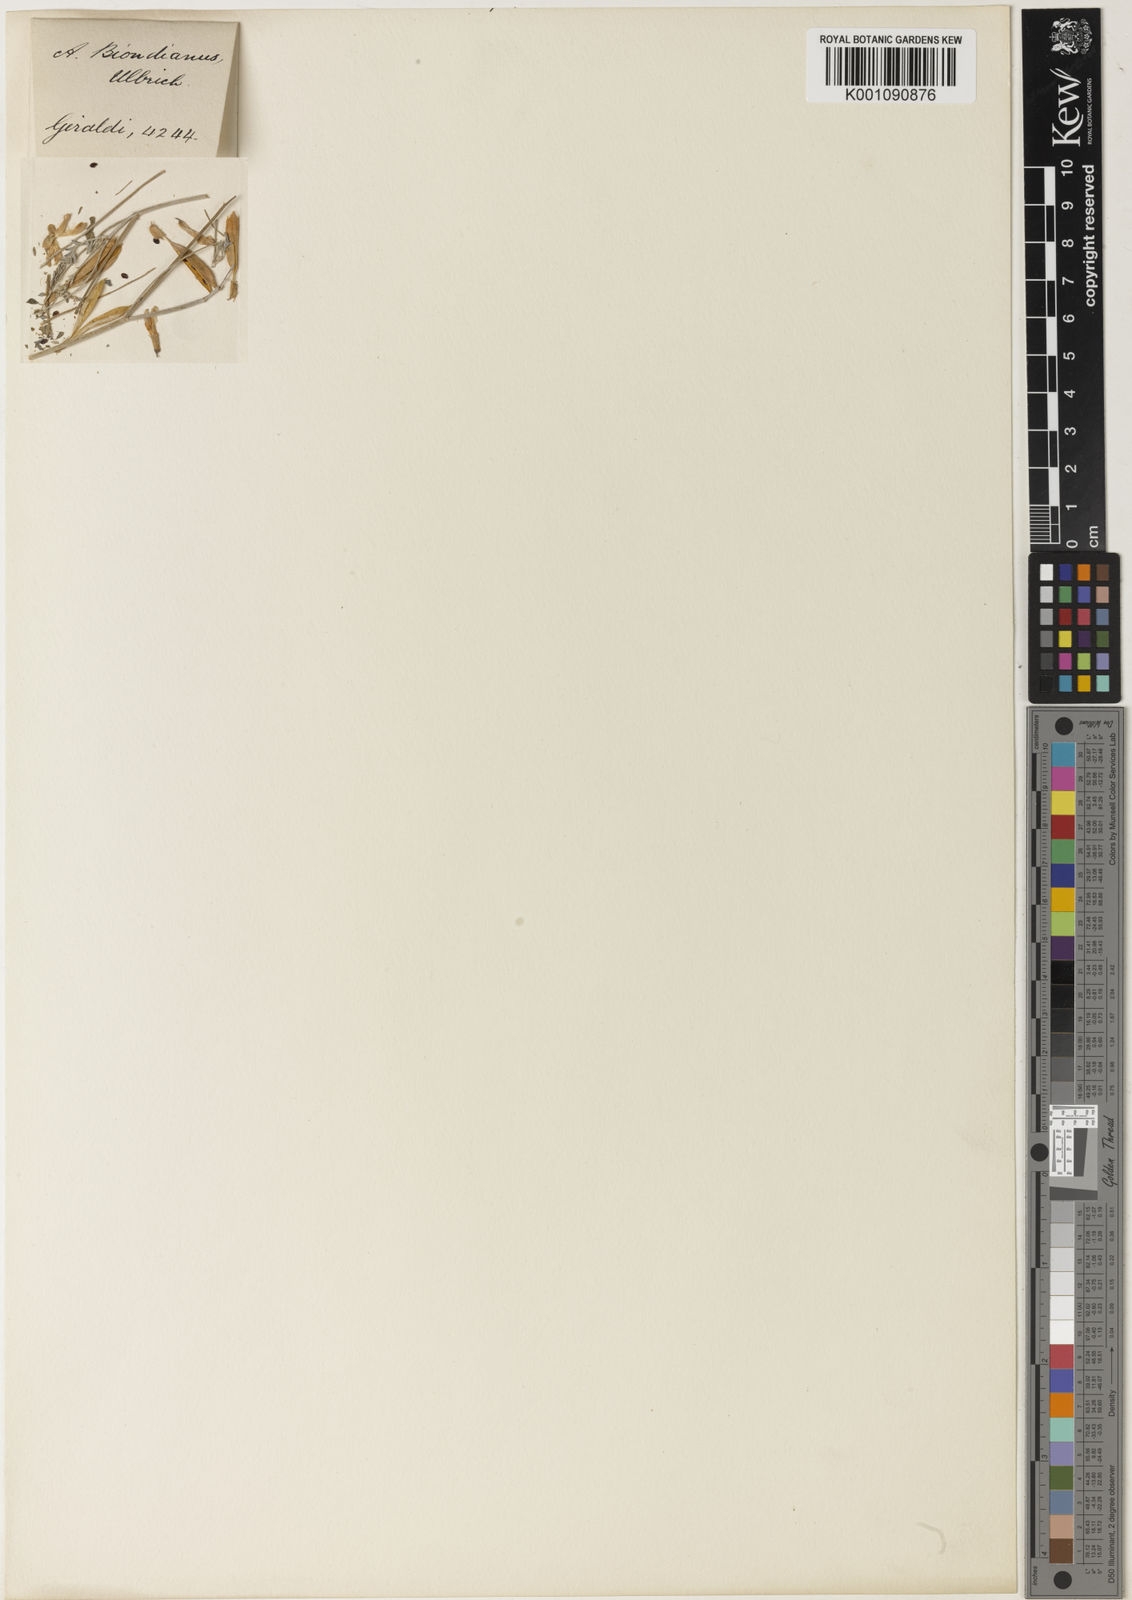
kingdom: Plantae
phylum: Tracheophyta
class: Magnoliopsida
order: Fabales
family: Fabaceae
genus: Astragalus
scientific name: Astragalus
